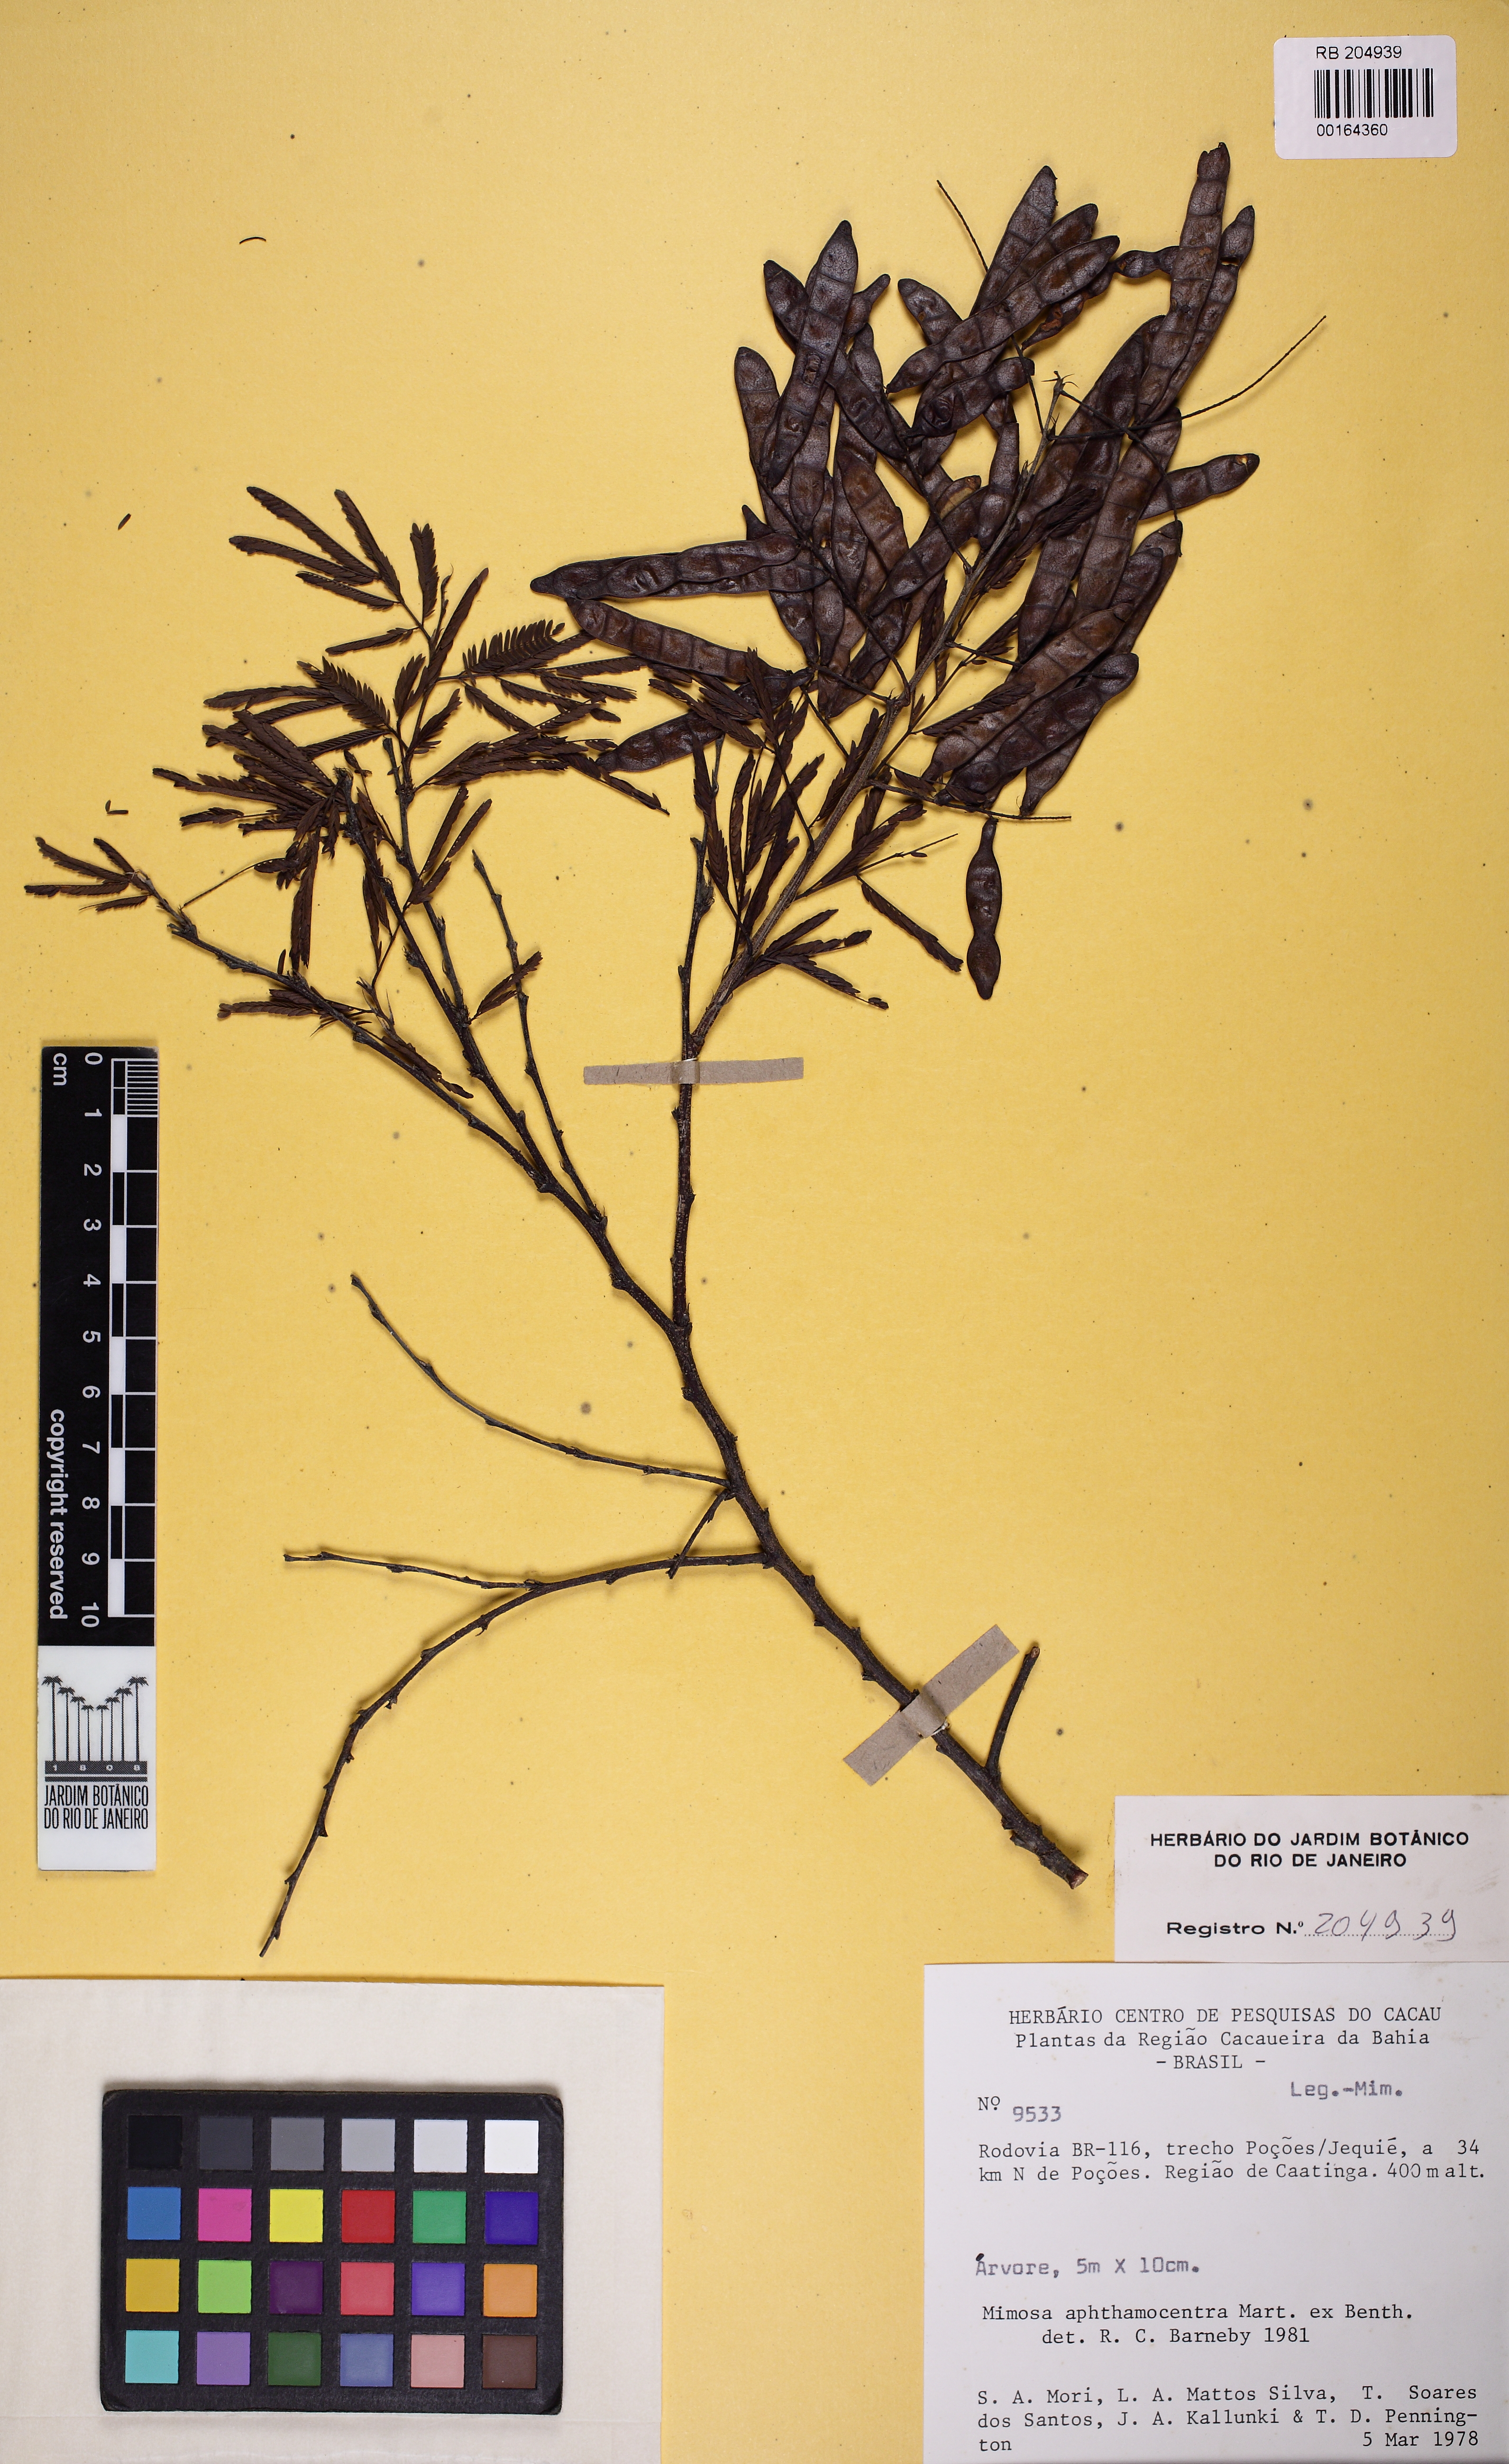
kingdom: Plantae
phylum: Tracheophyta
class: Magnoliopsida
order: Fabales
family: Fabaceae
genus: Mimosa
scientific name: Mimosa ophthalmocentra
